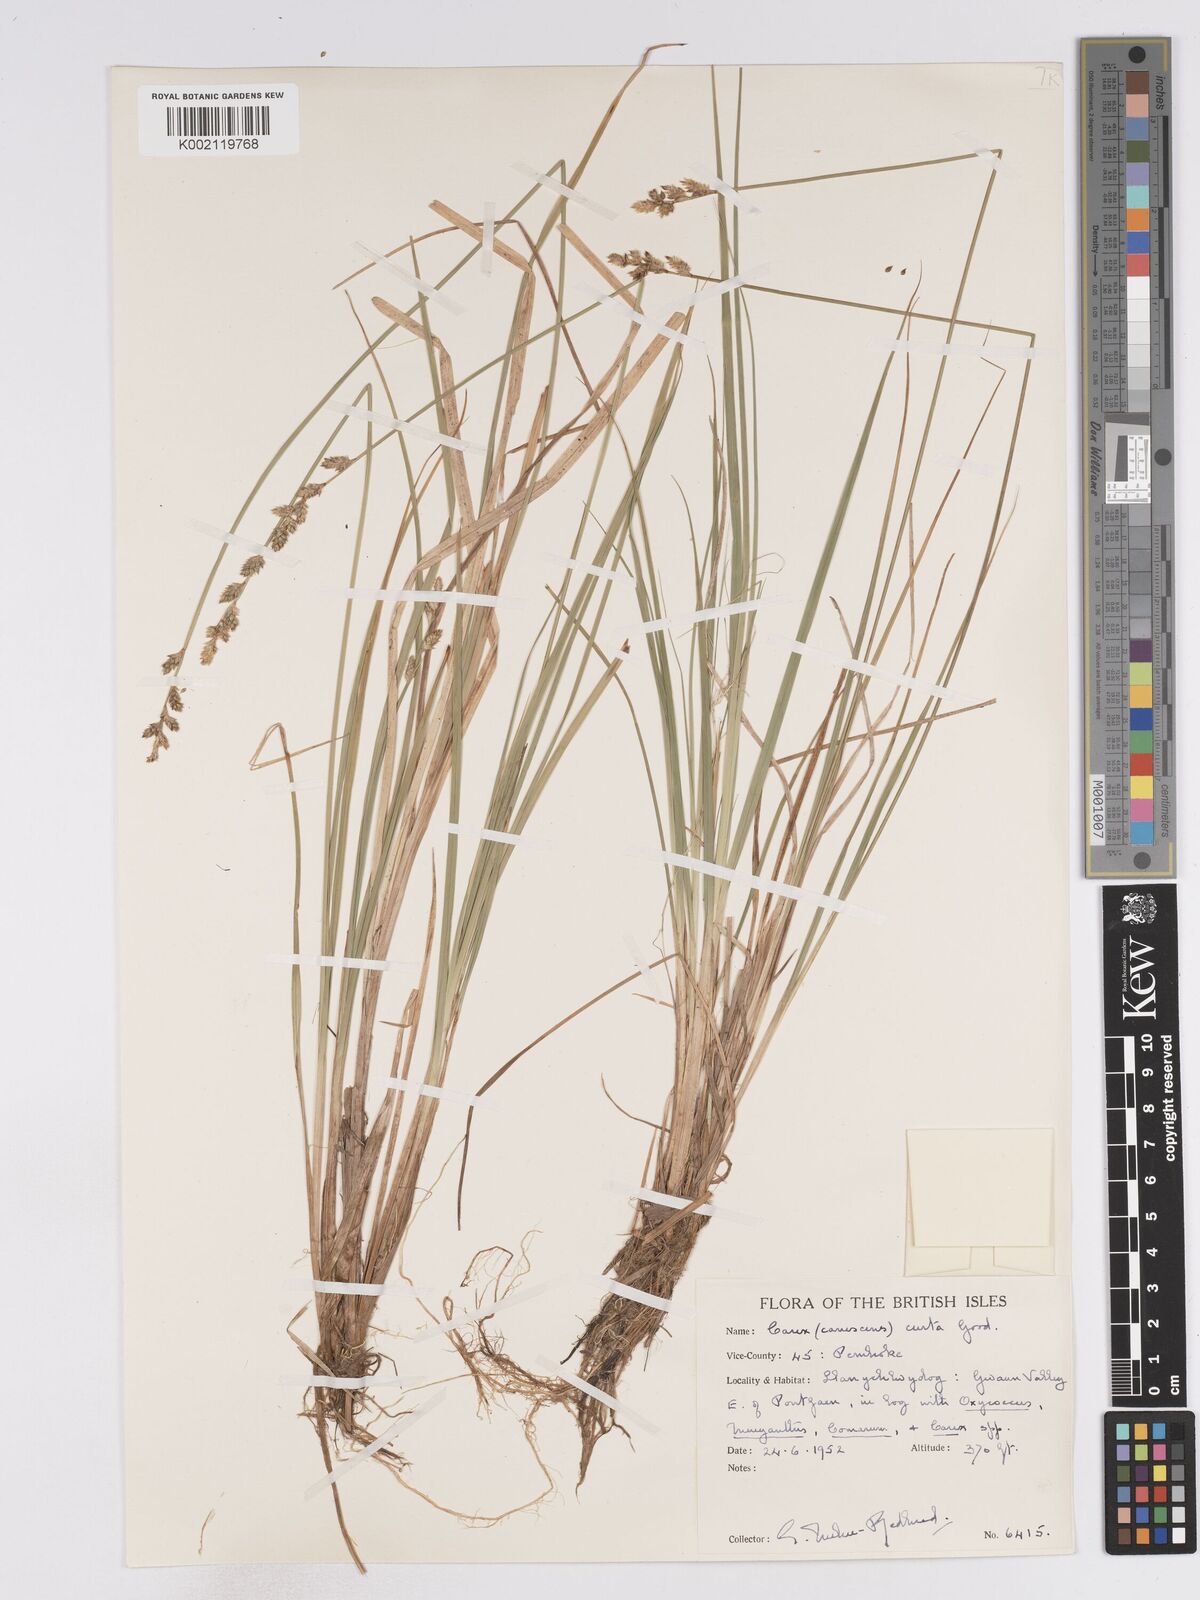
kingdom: Plantae
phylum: Tracheophyta
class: Liliopsida
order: Poales
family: Cyperaceae
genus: Carex
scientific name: Carex curta
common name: White sedge
